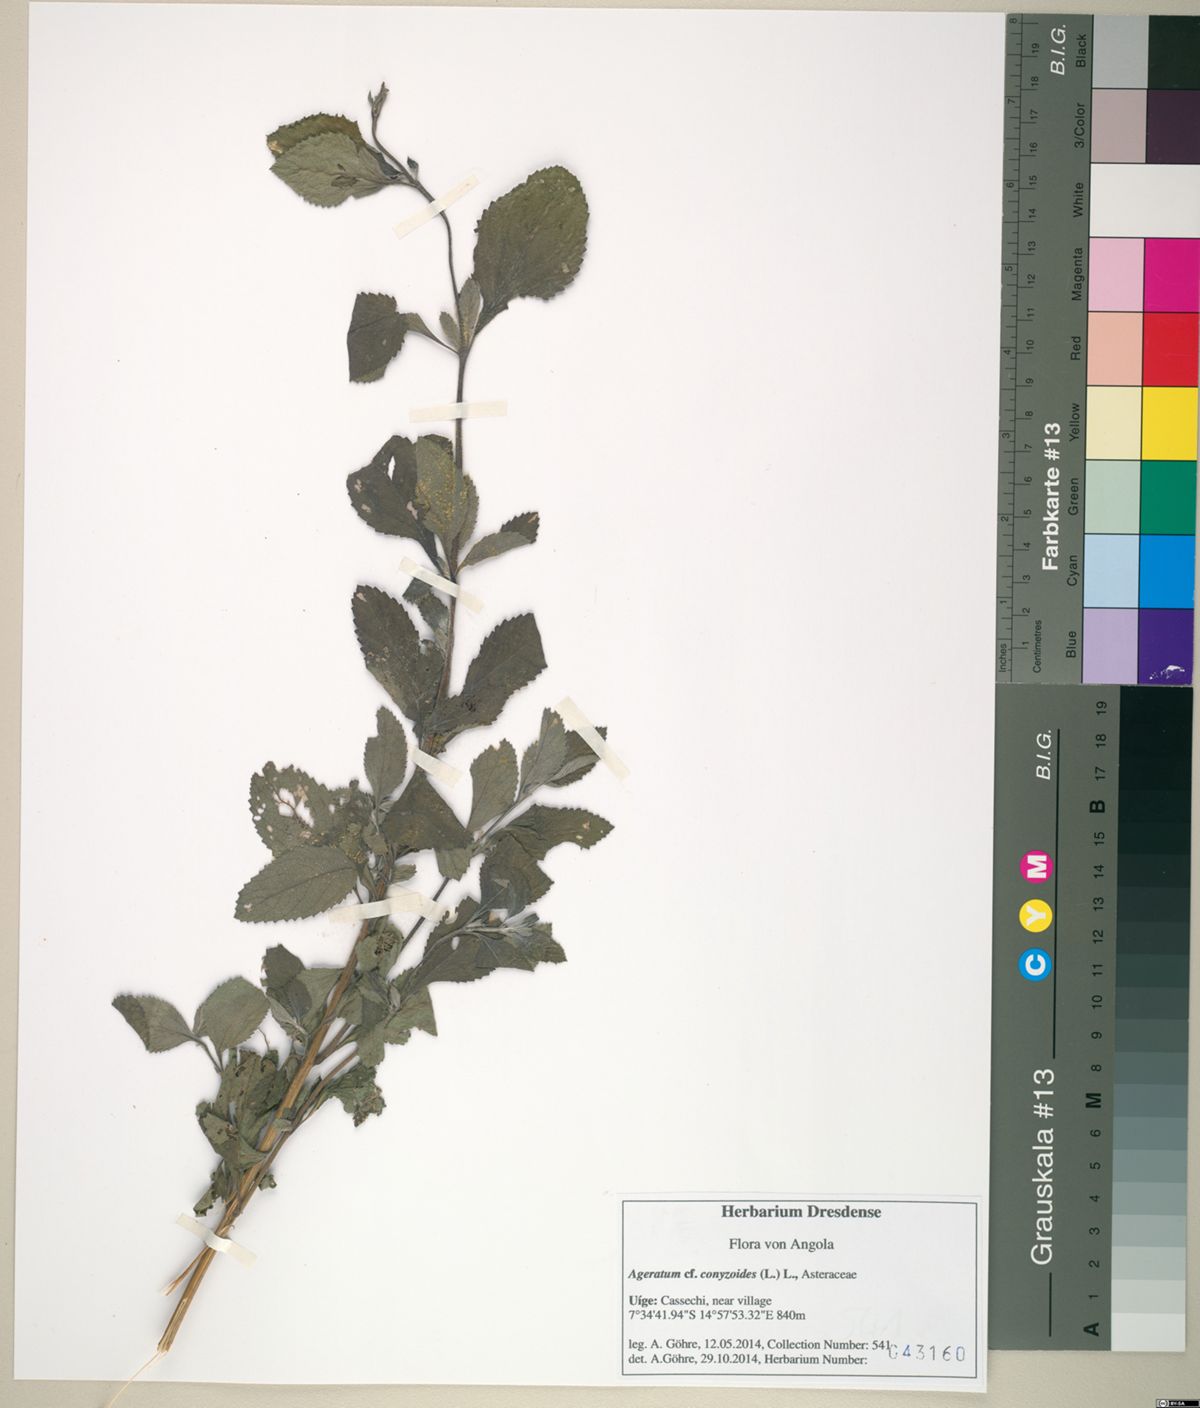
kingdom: Plantae
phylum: Tracheophyta
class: Magnoliopsida
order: Asterales
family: Asteraceae
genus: Ageratum
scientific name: Ageratum conyzoides
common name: Tropical whiteweed
